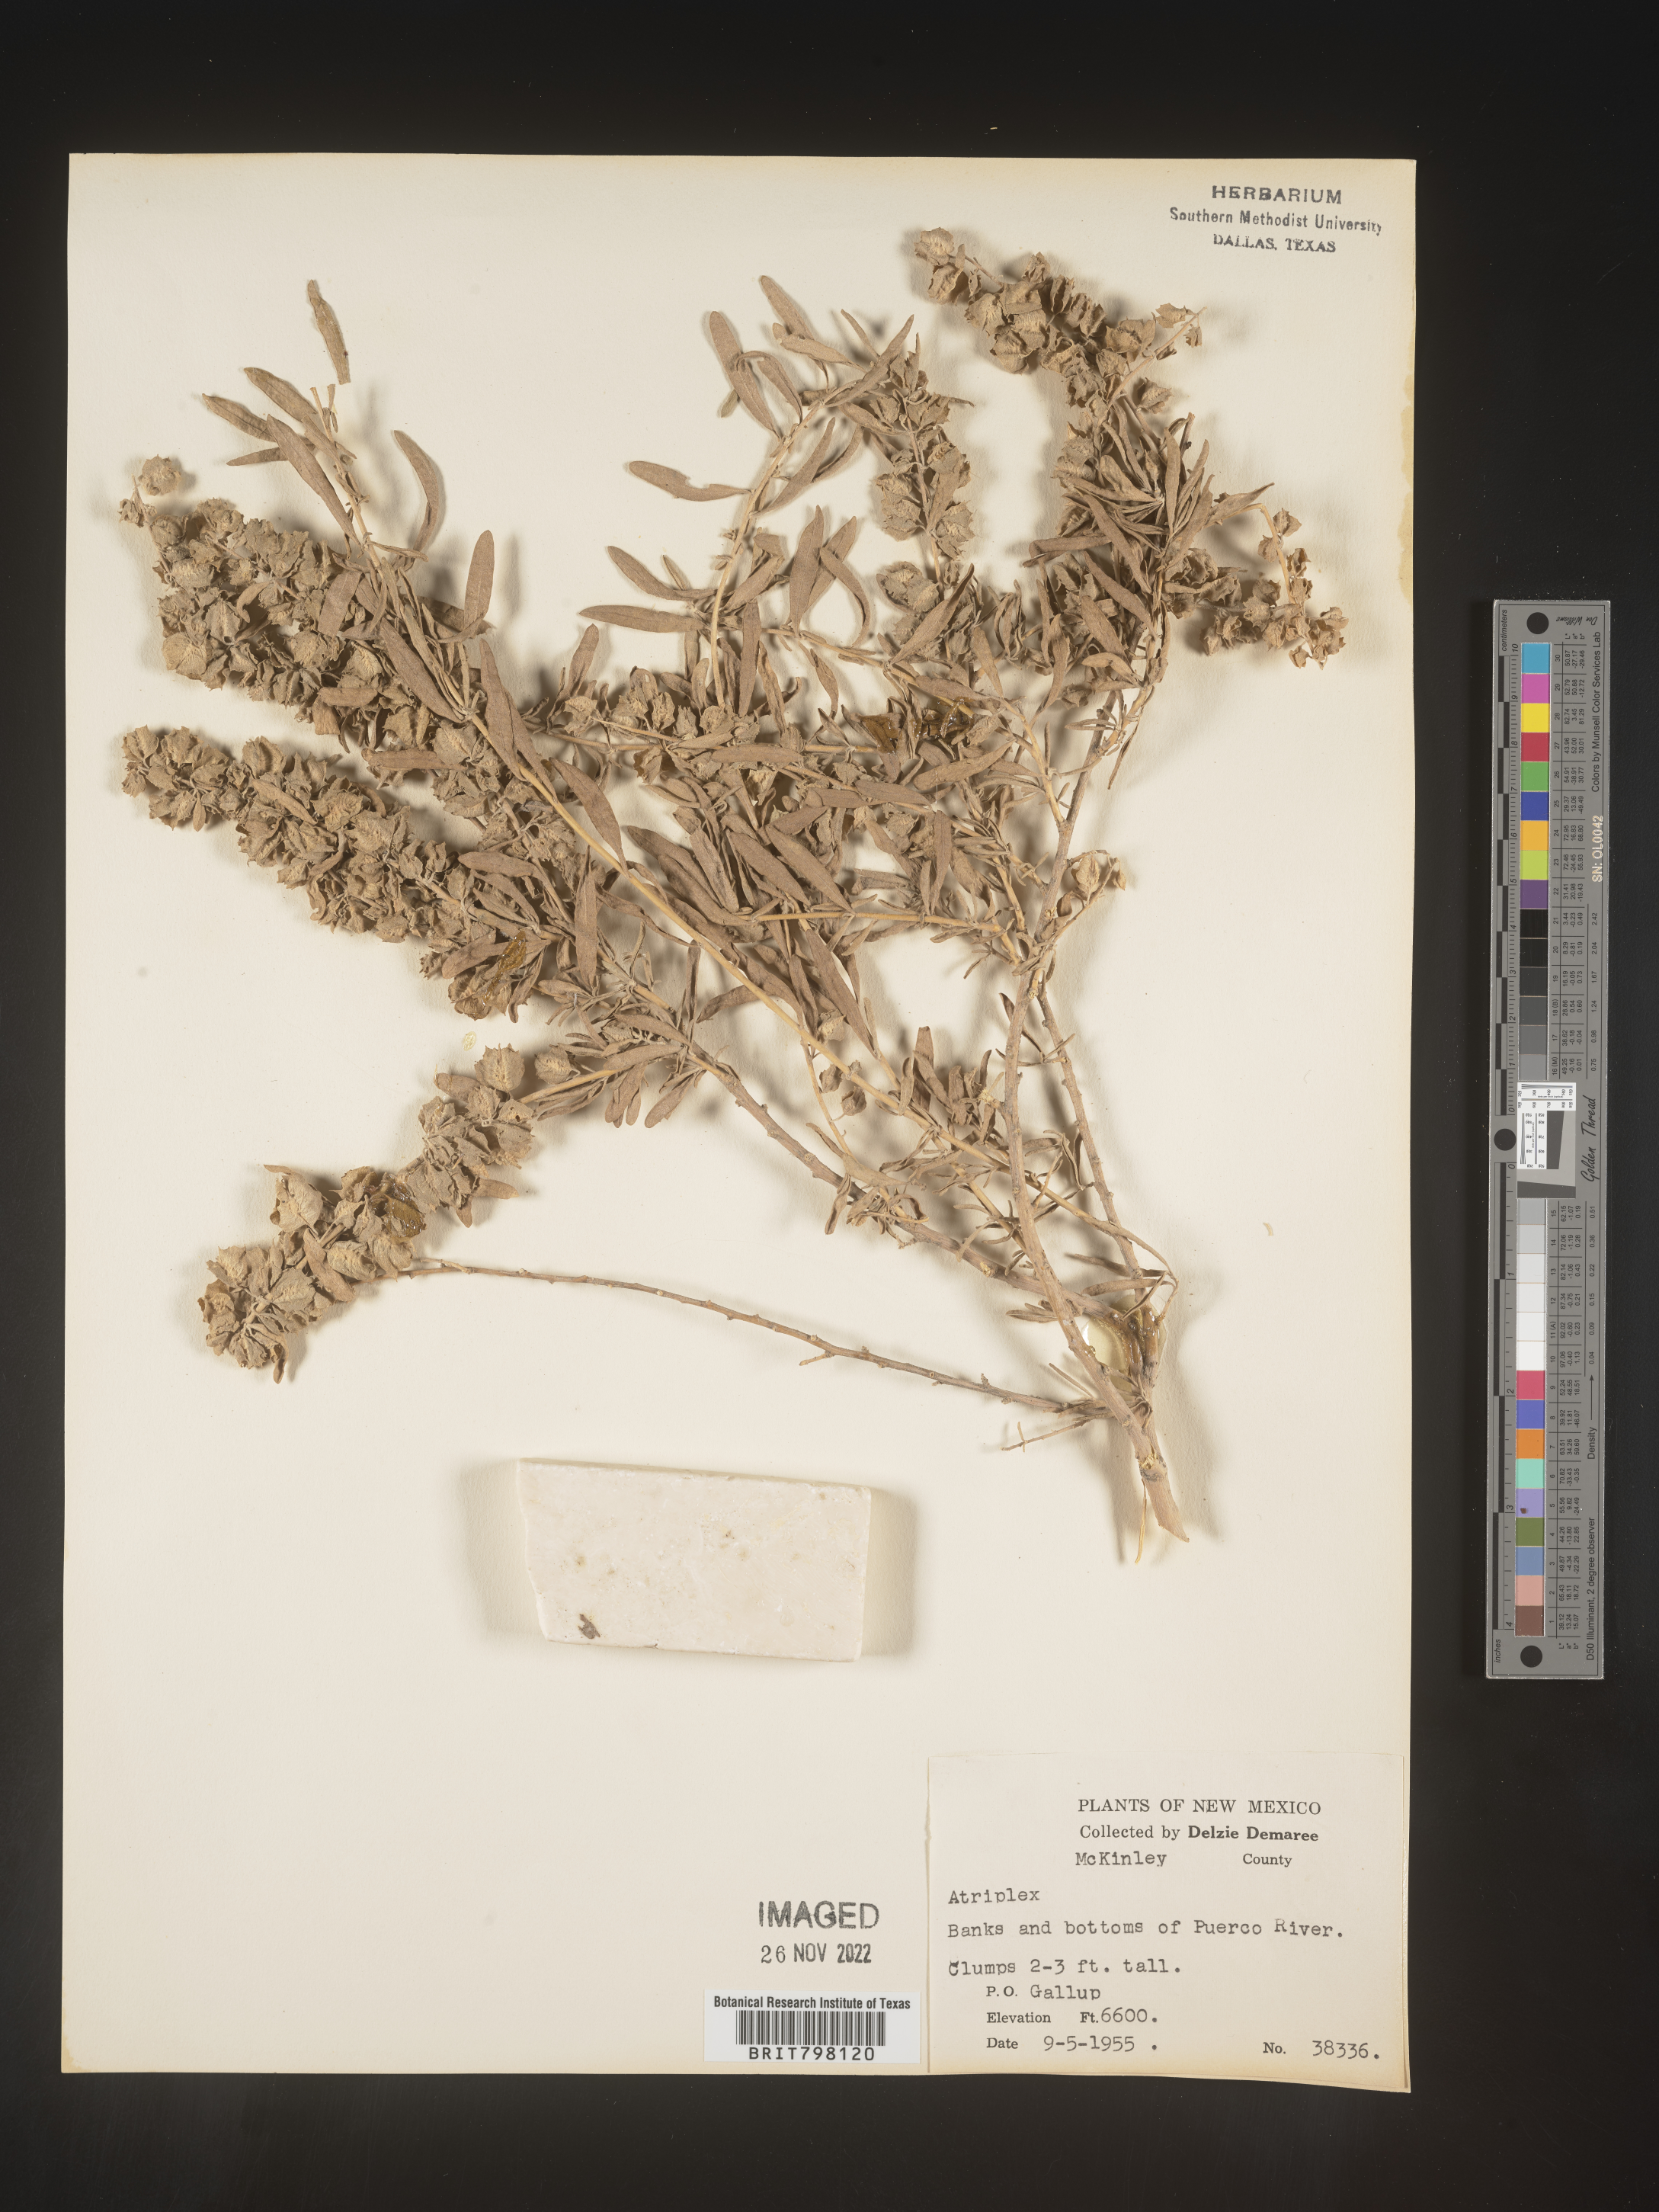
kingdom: Plantae
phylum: Tracheophyta
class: Magnoliopsida
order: Caryophyllales
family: Amaranthaceae
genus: Atriplex
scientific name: Atriplex
